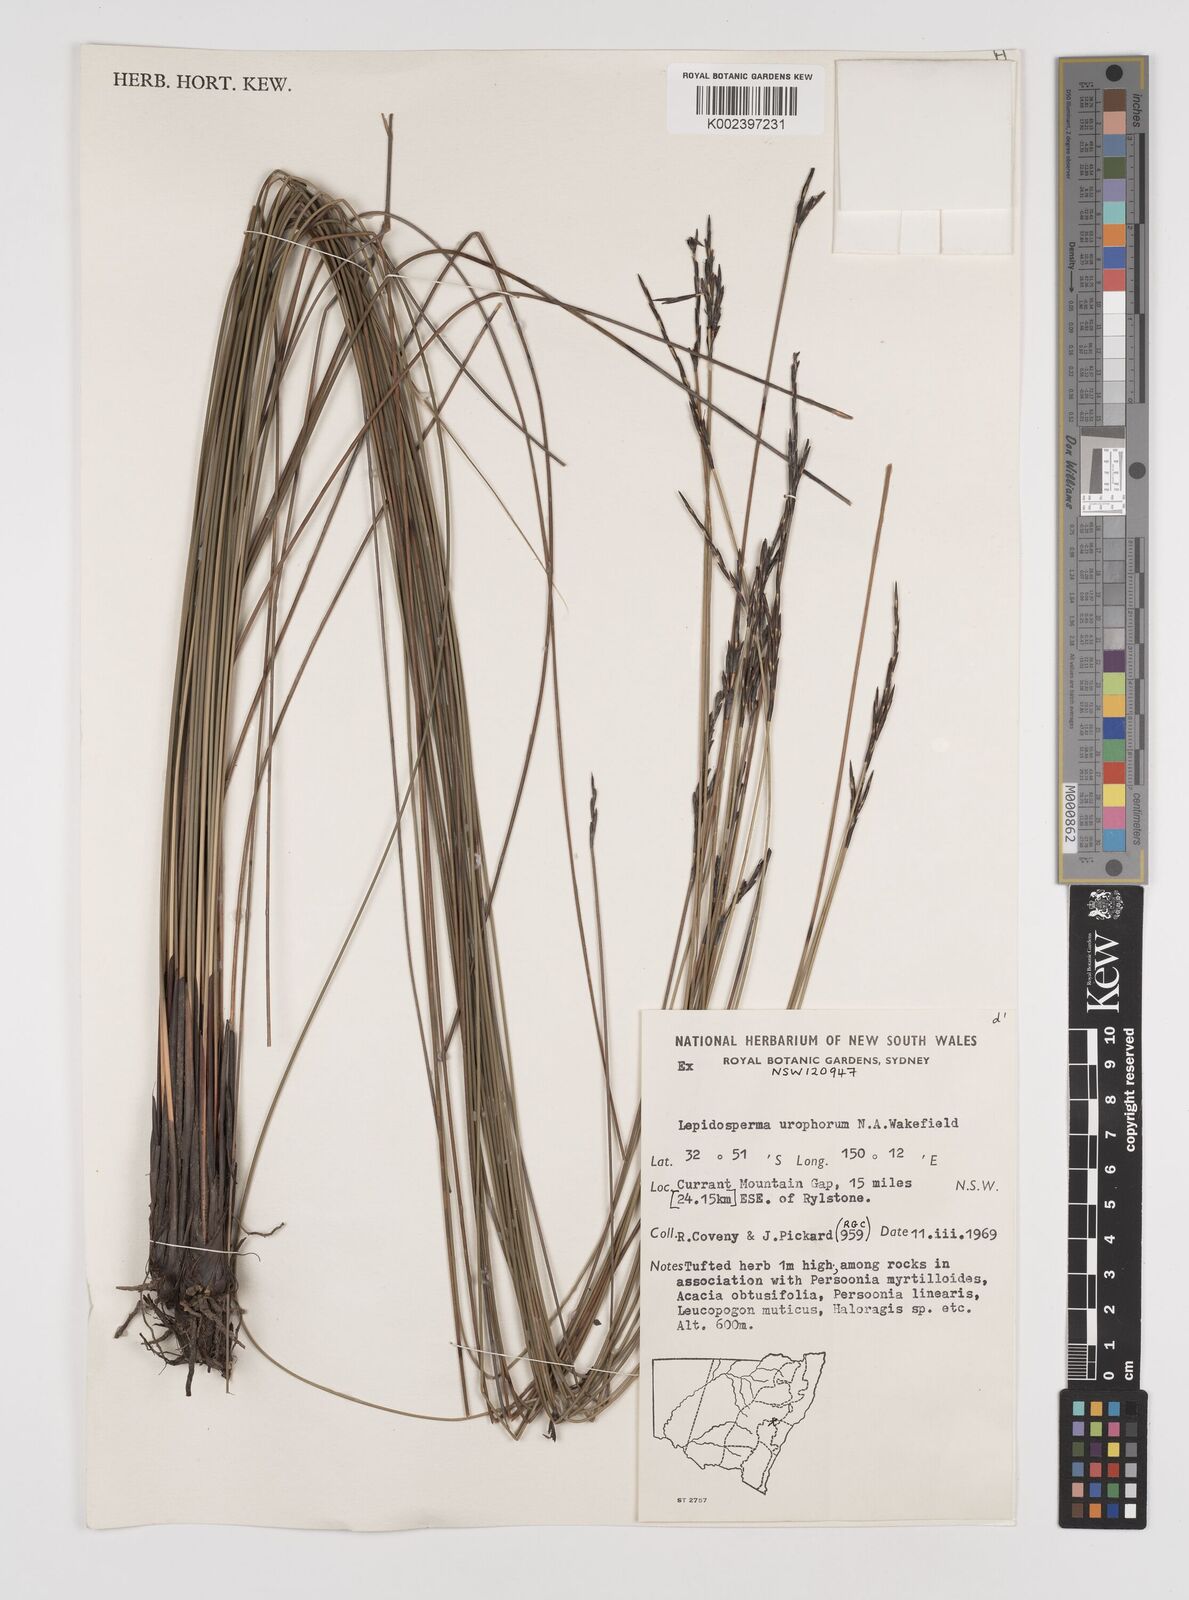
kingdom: Plantae
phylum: Tracheophyta
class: Liliopsida
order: Poales
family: Cyperaceae
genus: Lepidosperma
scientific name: Lepidosperma urophorum
